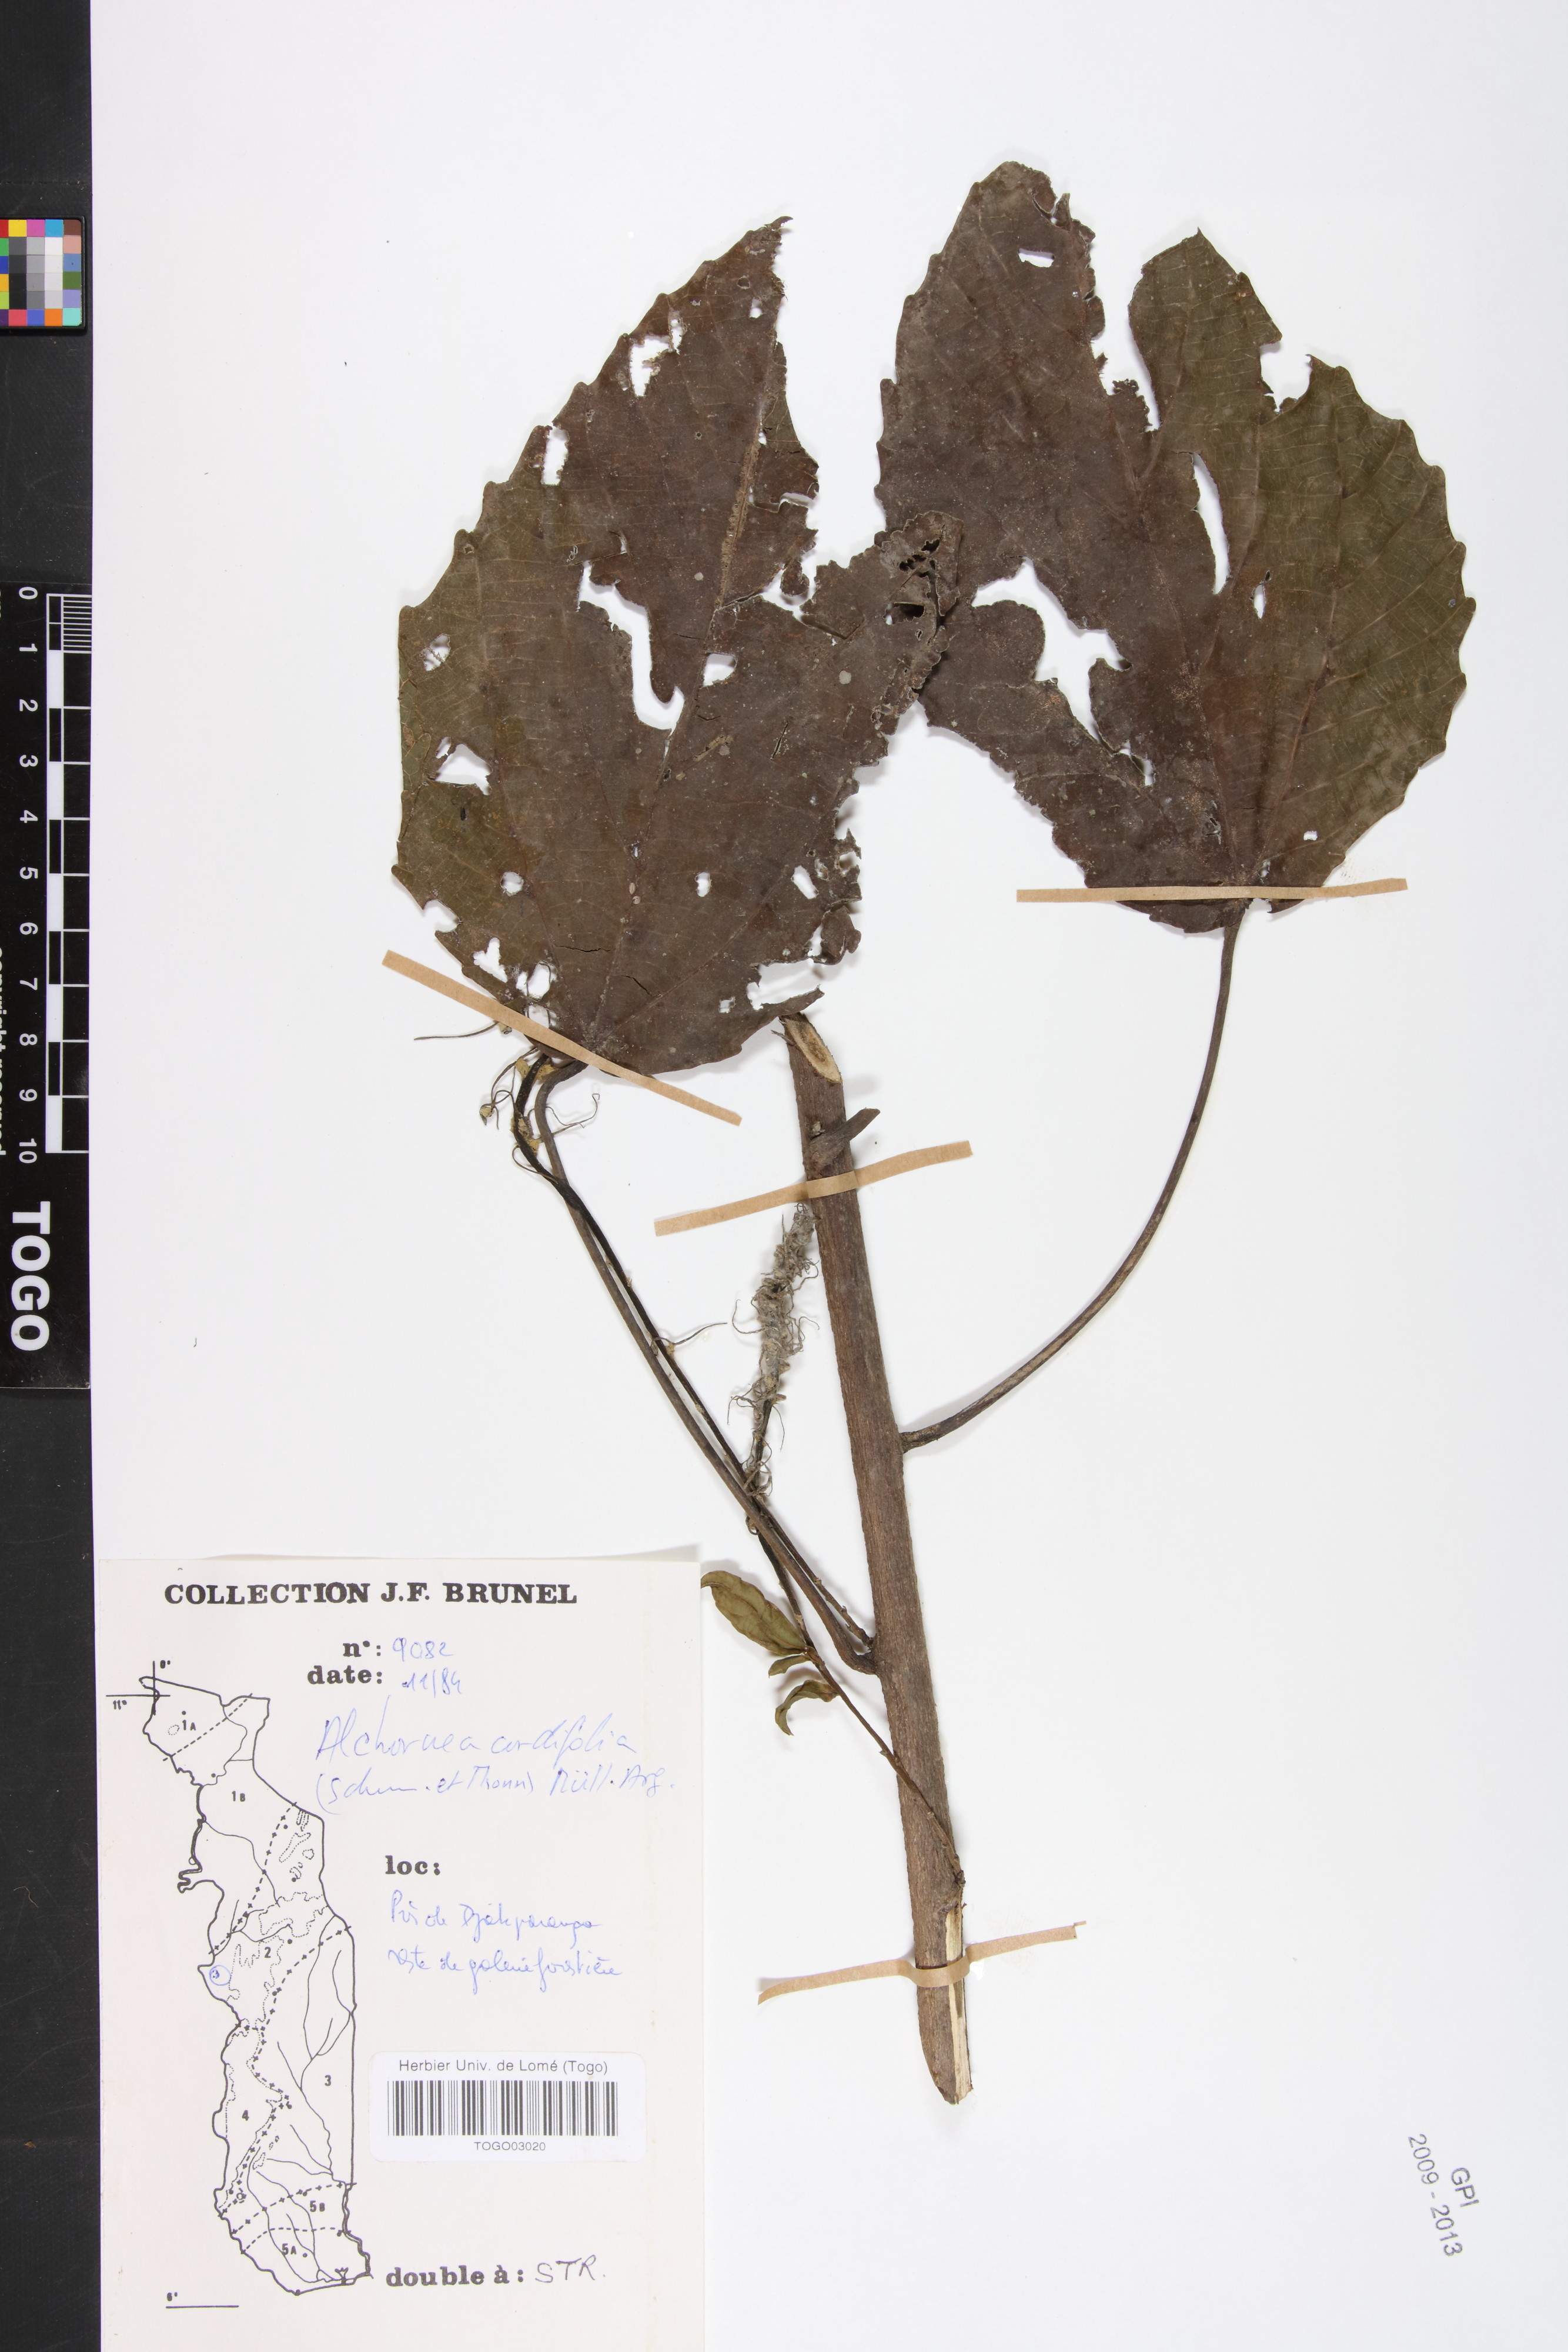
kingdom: Plantae
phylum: Tracheophyta
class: Magnoliopsida
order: Malpighiales
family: Euphorbiaceae
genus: Alchornea
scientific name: Alchornea cordifolia
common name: Christmasbush
